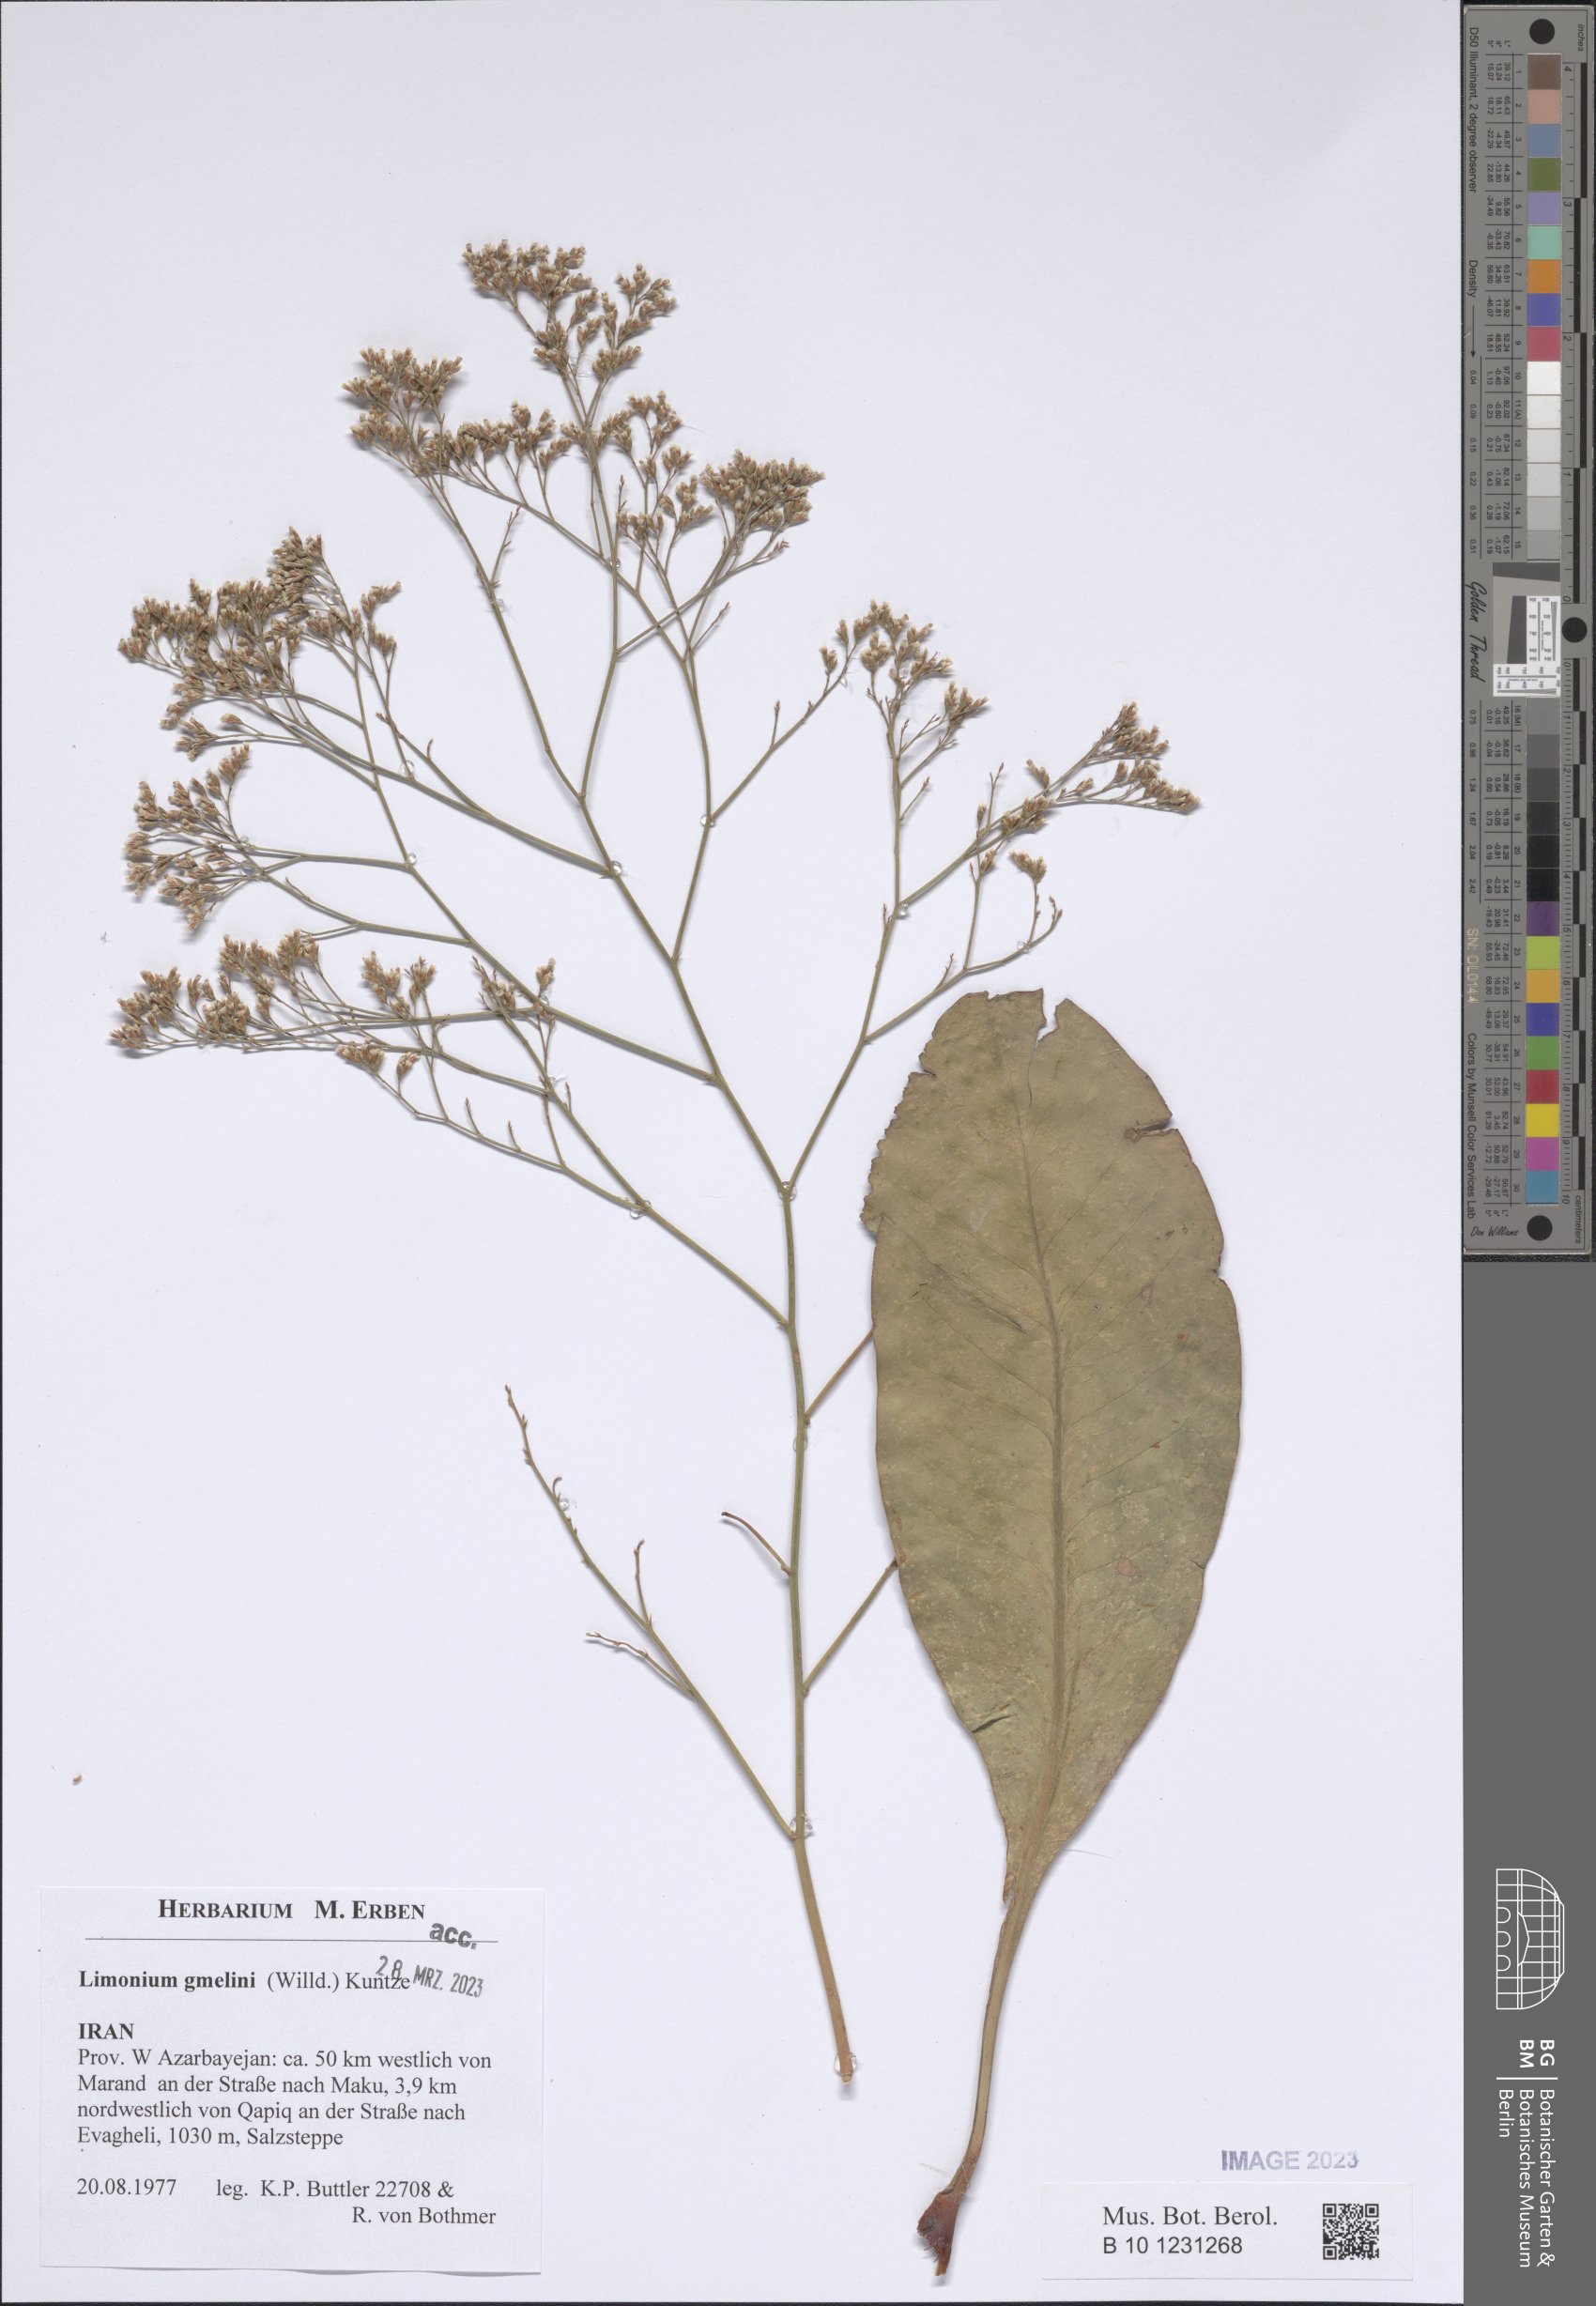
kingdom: Plantae
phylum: Tracheophyta
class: Magnoliopsida
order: Caryophyllales
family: Plumbaginaceae
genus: Limonium
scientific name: Limonium carnosum
